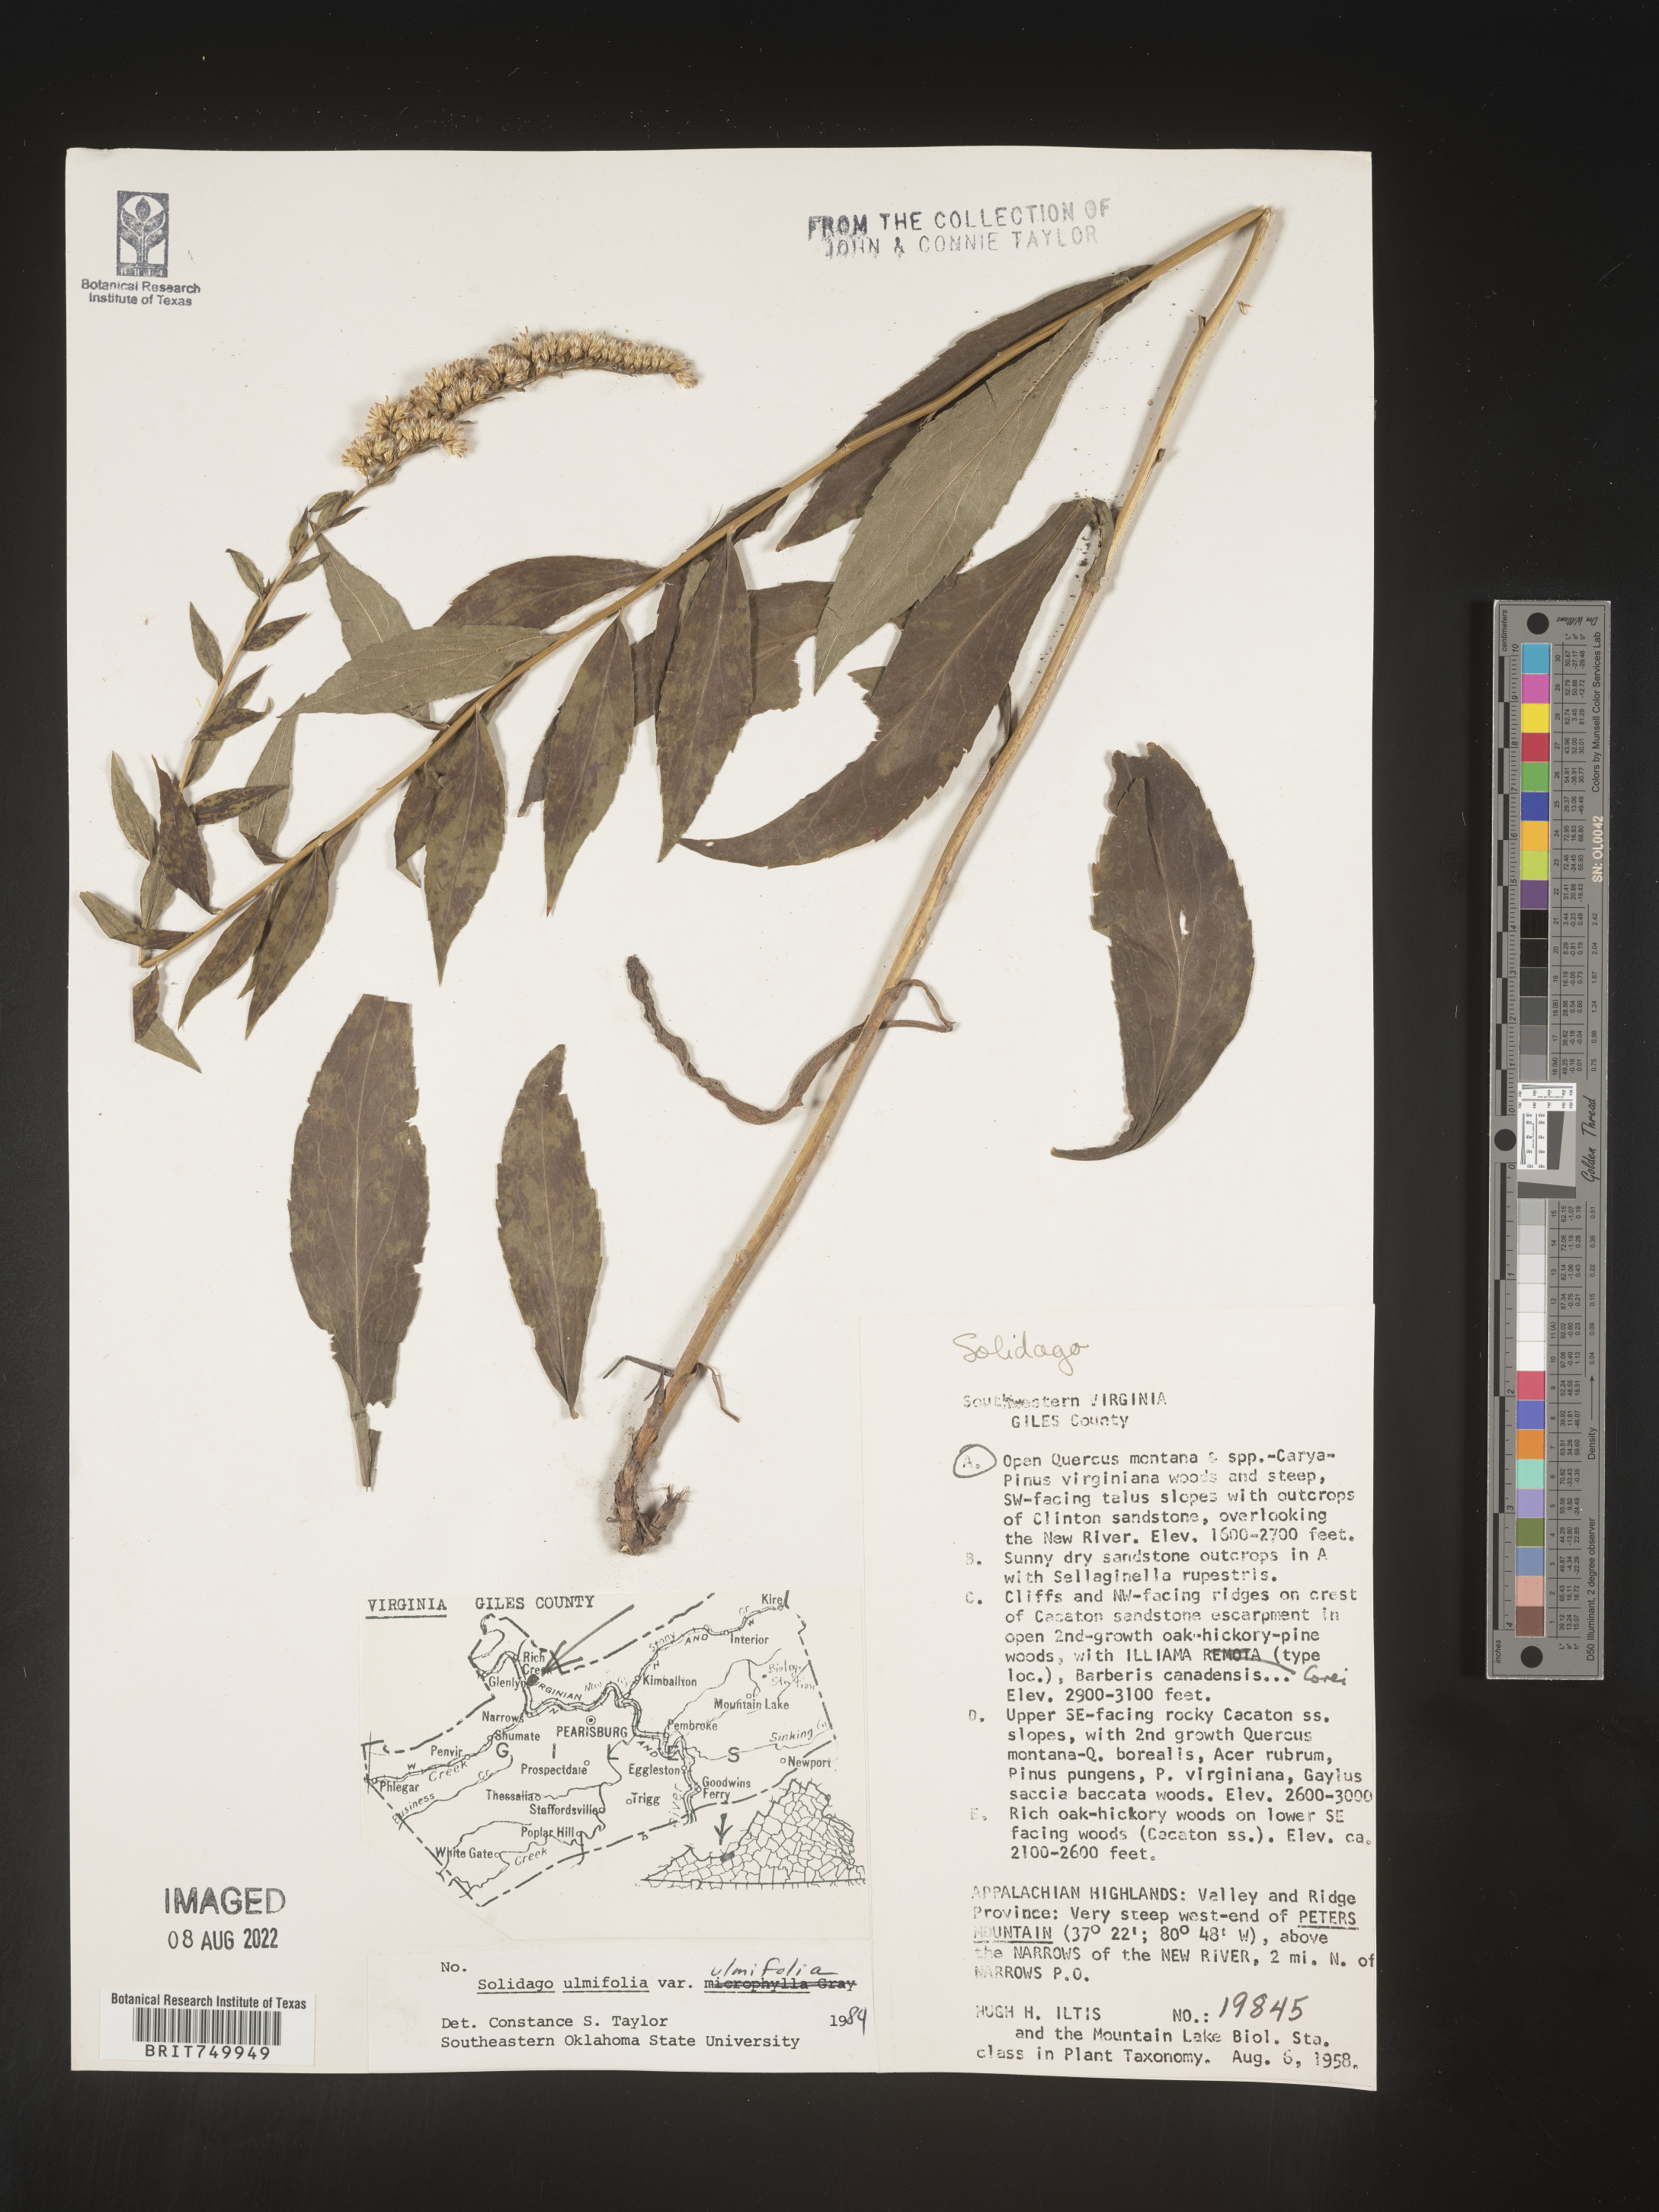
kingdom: Plantae
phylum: Tracheophyta
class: Magnoliopsida
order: Asterales
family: Asteraceae
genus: Solidago
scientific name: Solidago ulmifolia
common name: Elm-leaf goldenrod
